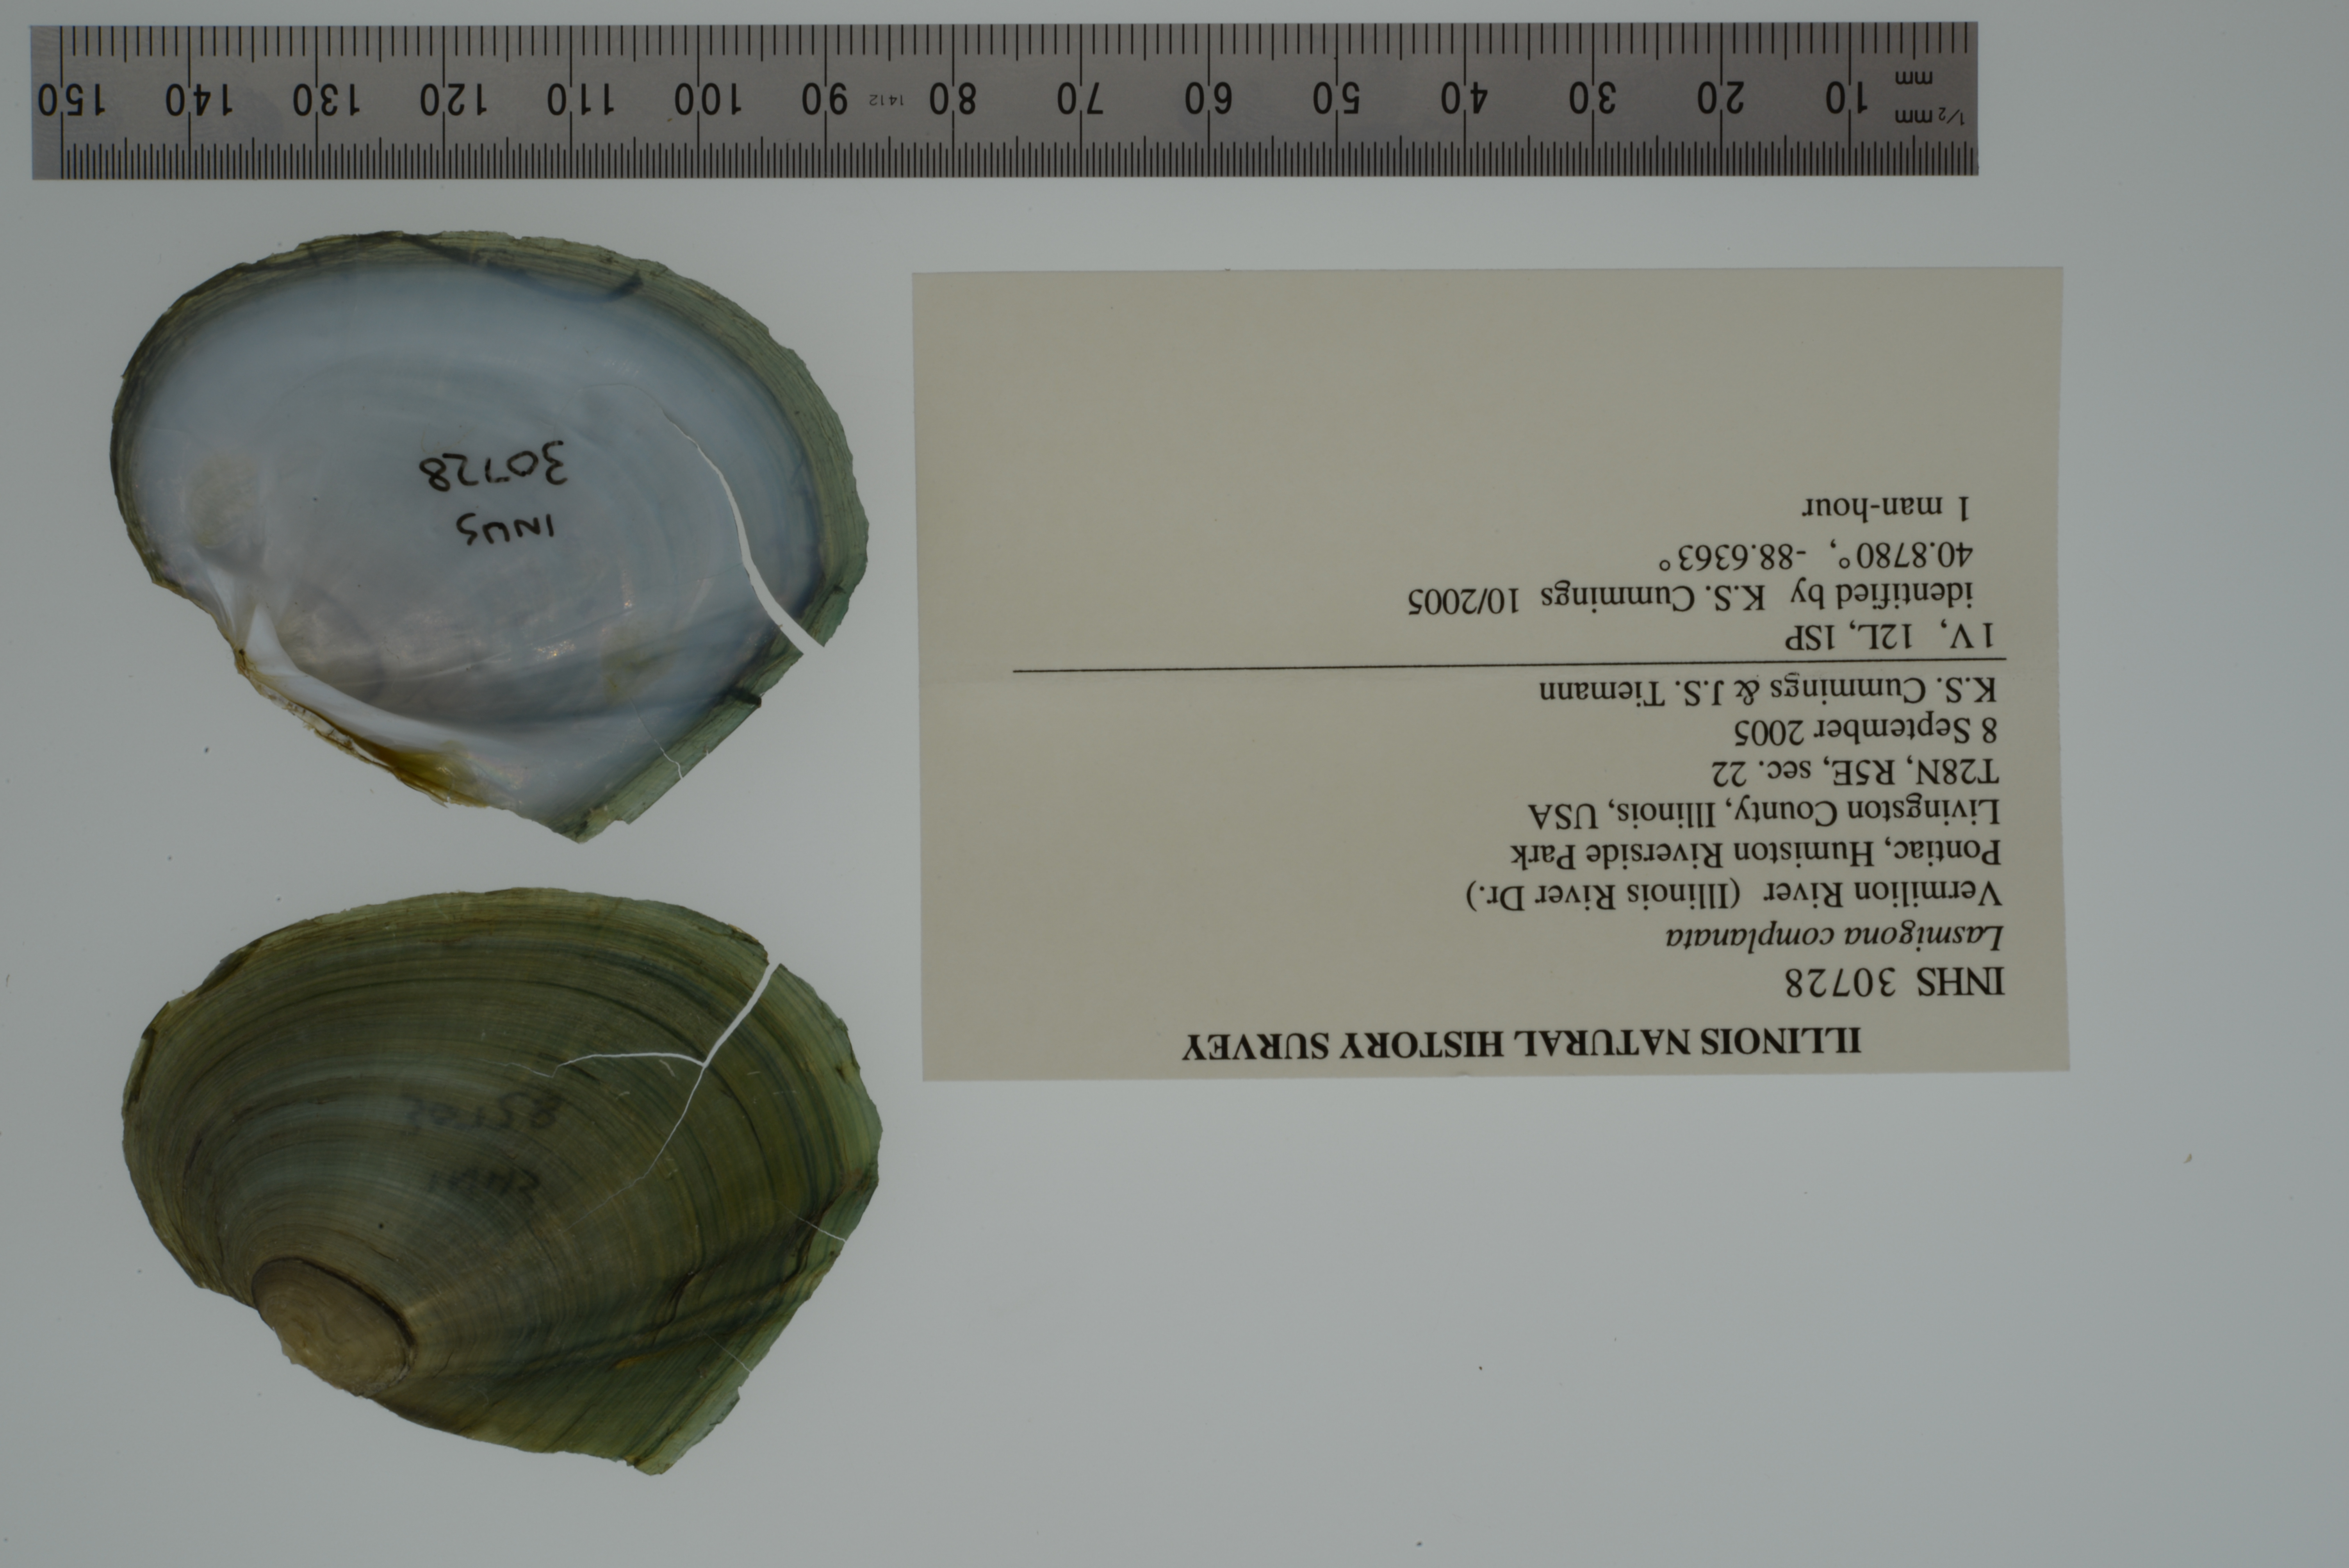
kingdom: Animalia
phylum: Mollusca
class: Bivalvia
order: Unionida
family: Unionidae
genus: Lasmigona
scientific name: Lasmigona complanata
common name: White heelsplitter
